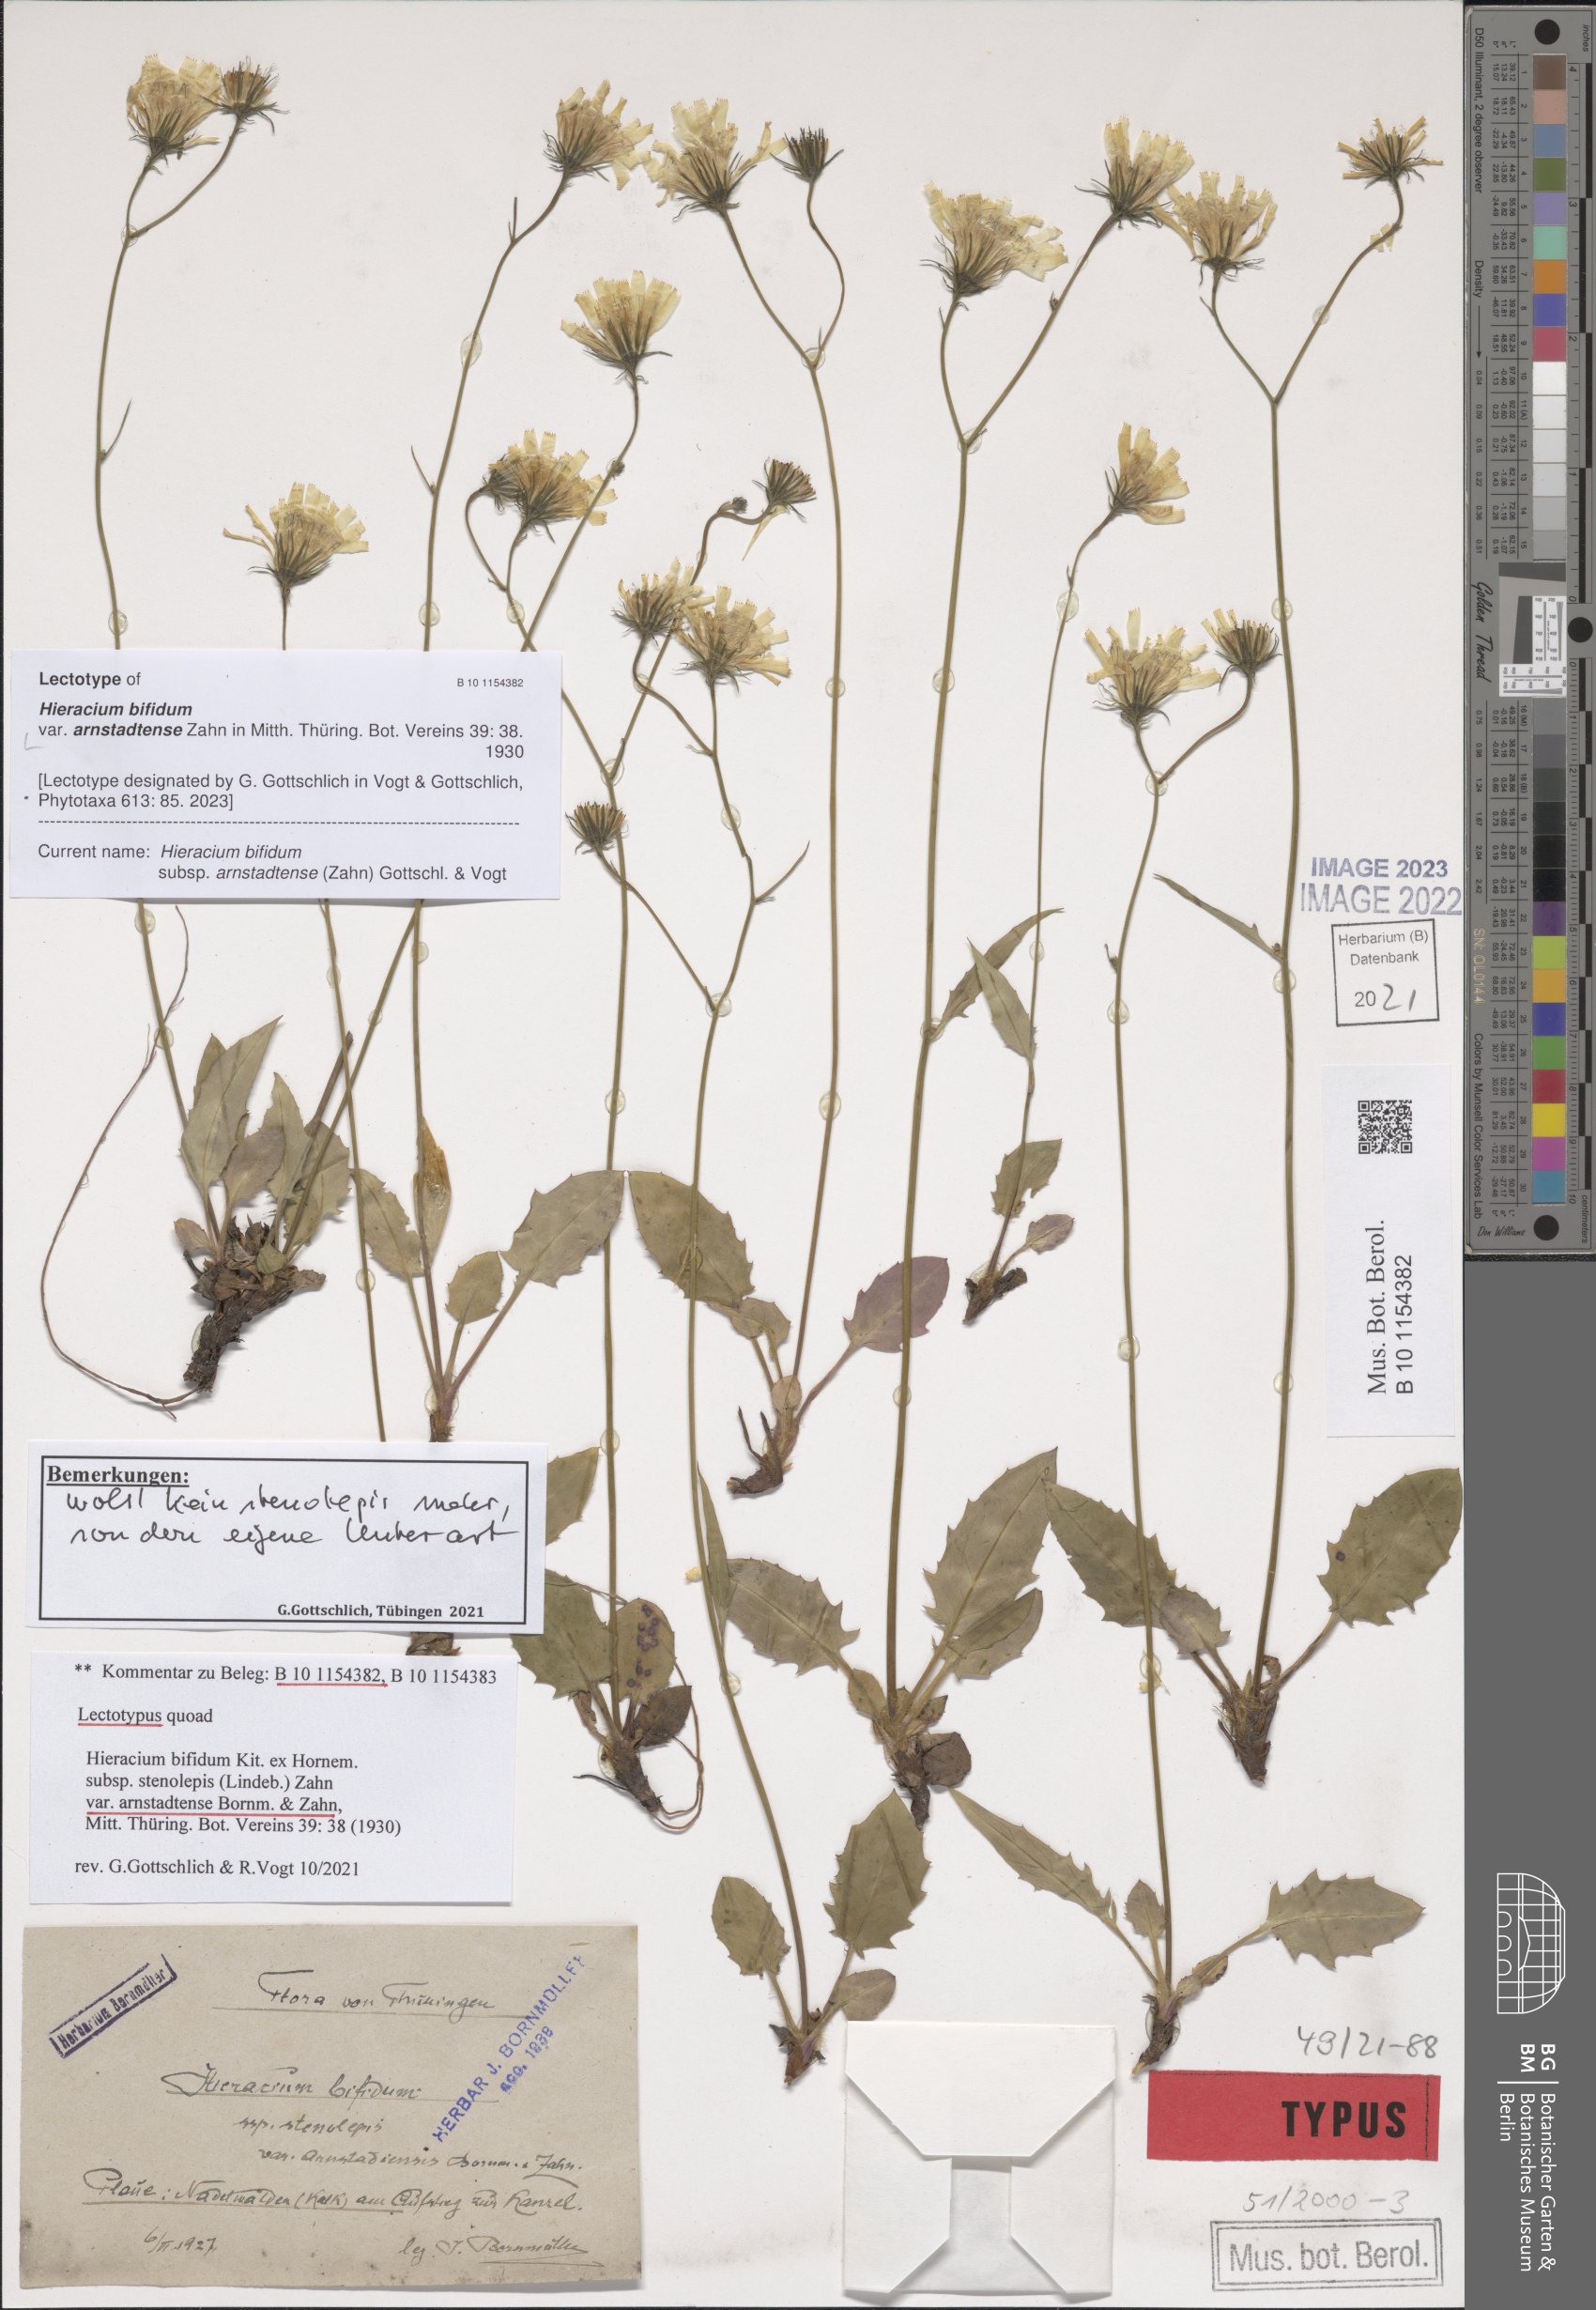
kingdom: Plantae
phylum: Tracheophyta
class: Magnoliopsida
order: Asterales
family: Asteraceae
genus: Hieracium
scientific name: Hieracium bifidum
